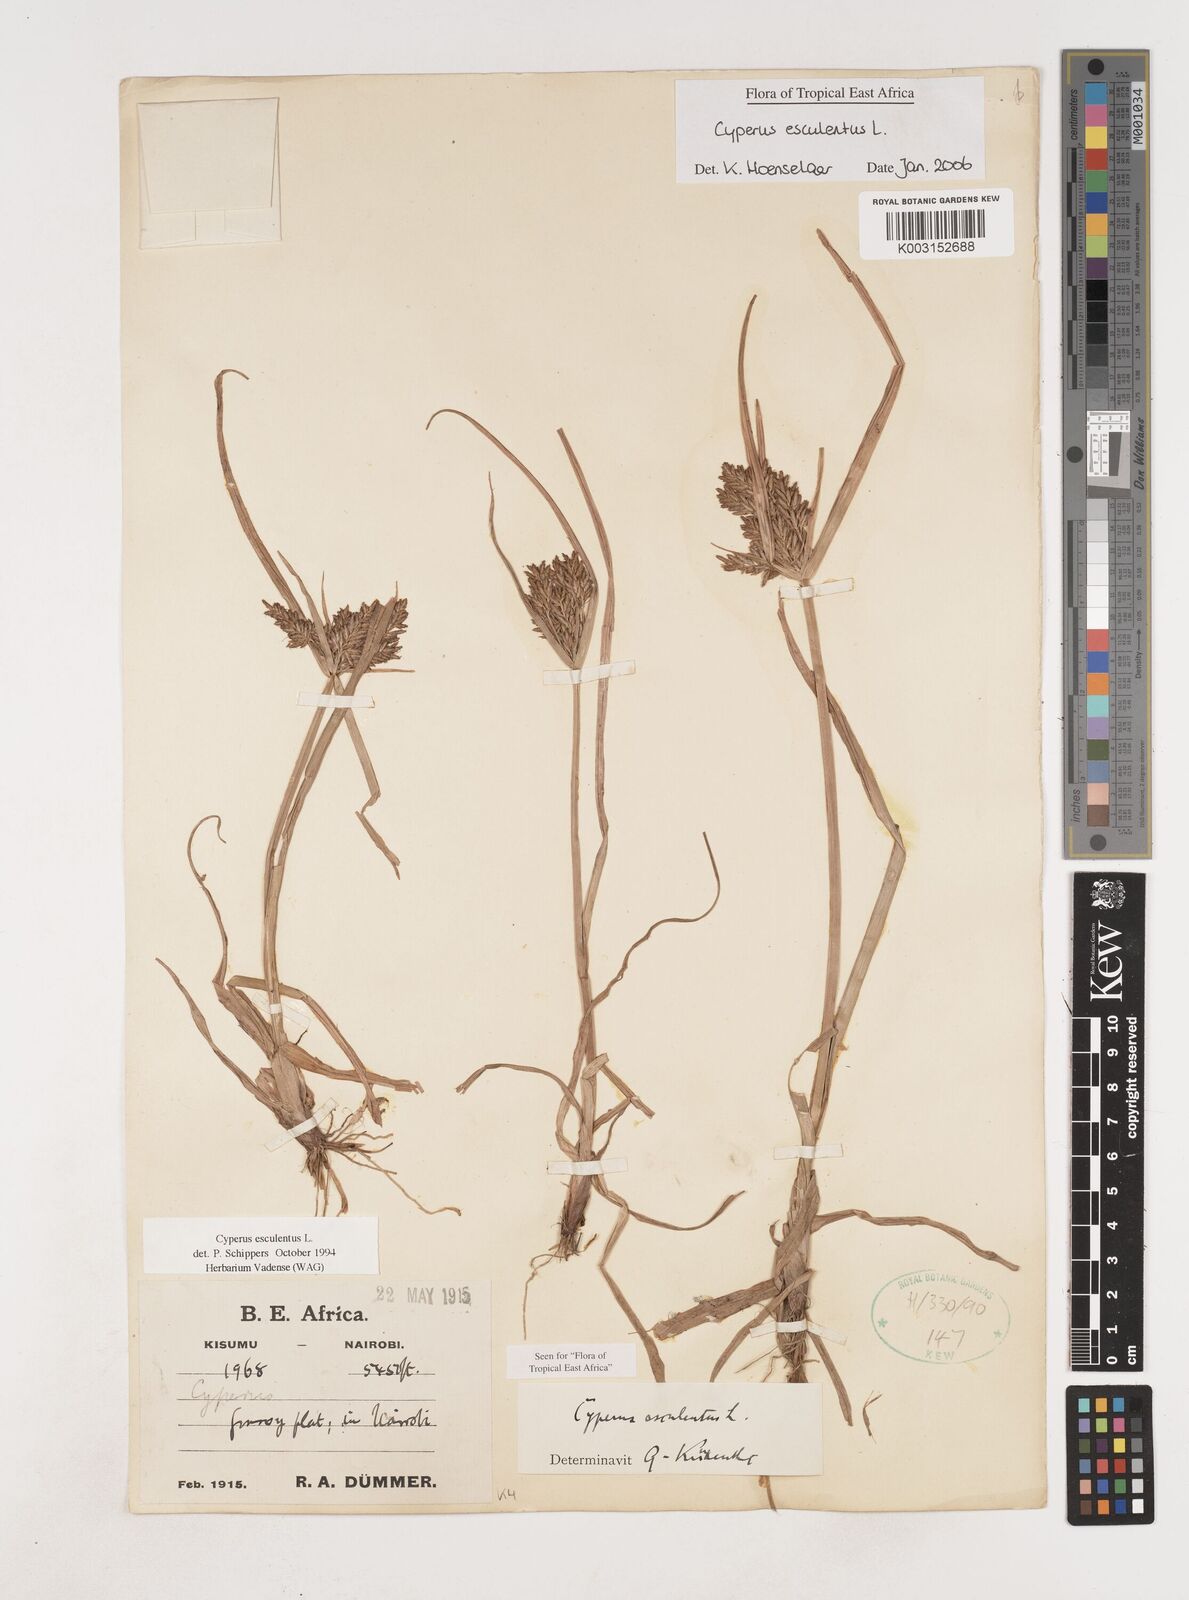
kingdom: Plantae
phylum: Tracheophyta
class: Liliopsida
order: Poales
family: Cyperaceae
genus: Cyperus
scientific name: Cyperus esculentus
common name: Yellow nutsedge
